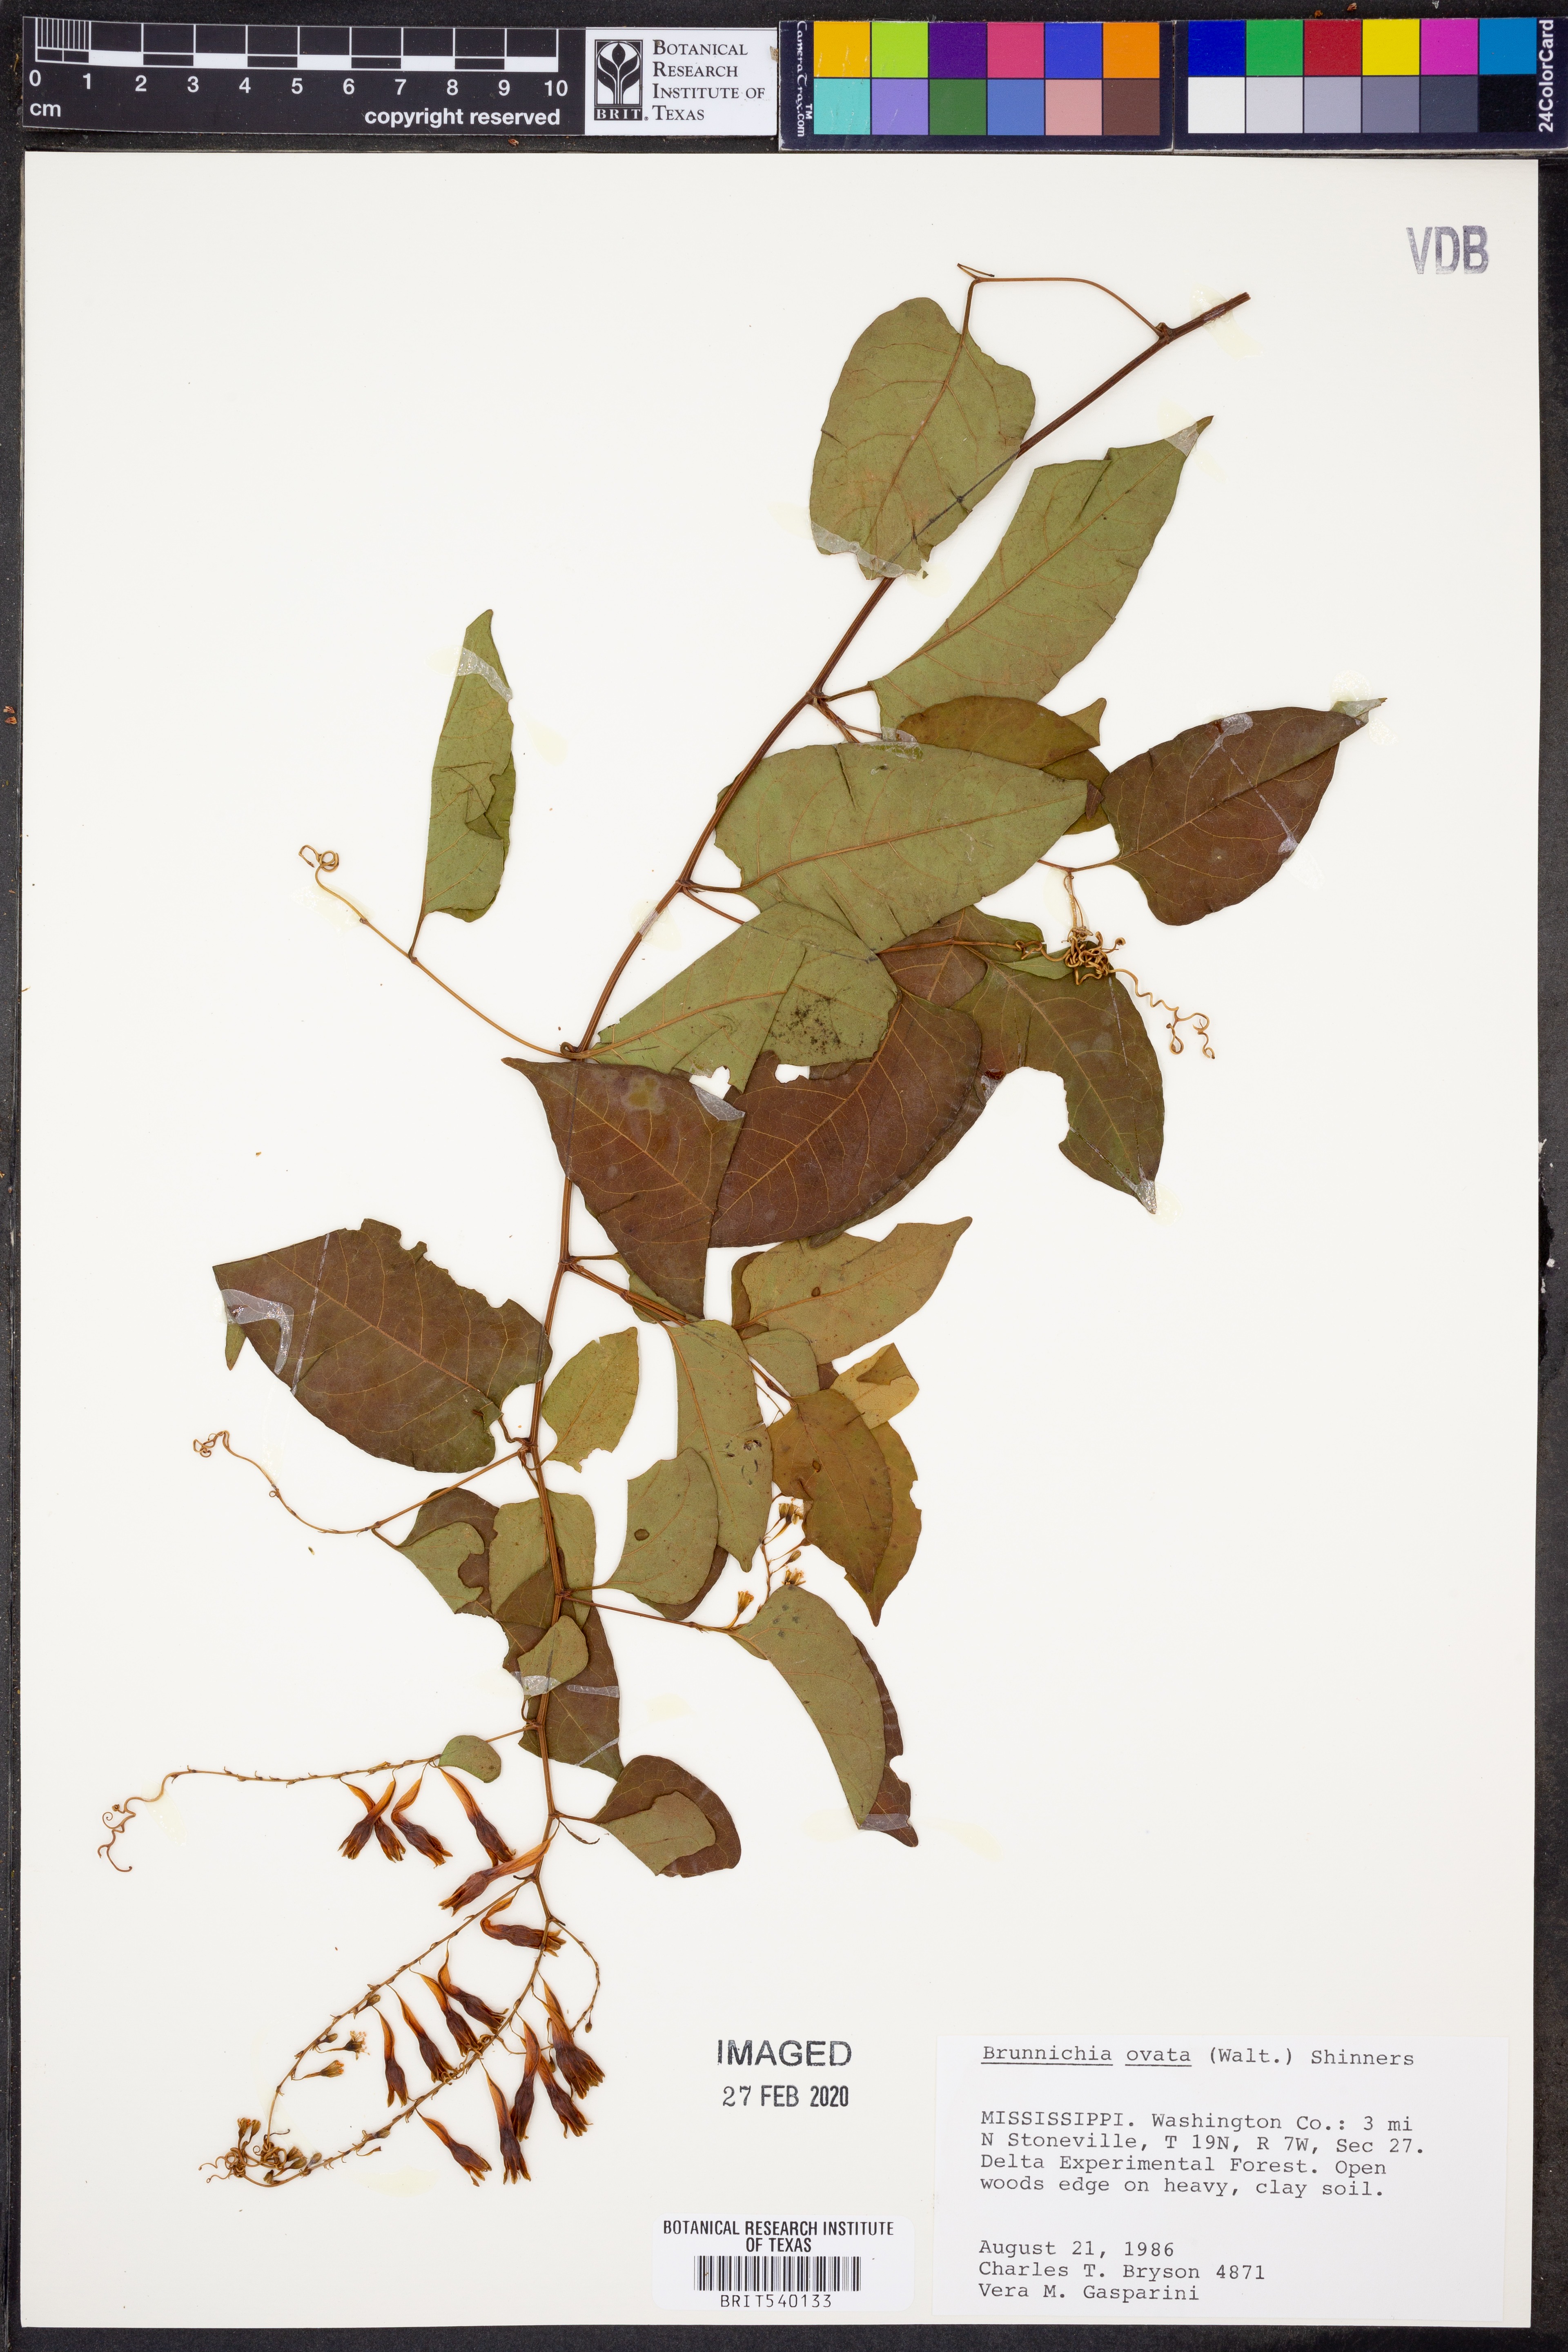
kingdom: Plantae
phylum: Tracheophyta
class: Magnoliopsida
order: Caryophyllales
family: Polygonaceae
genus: Brunnichia
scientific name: Brunnichia ovata
